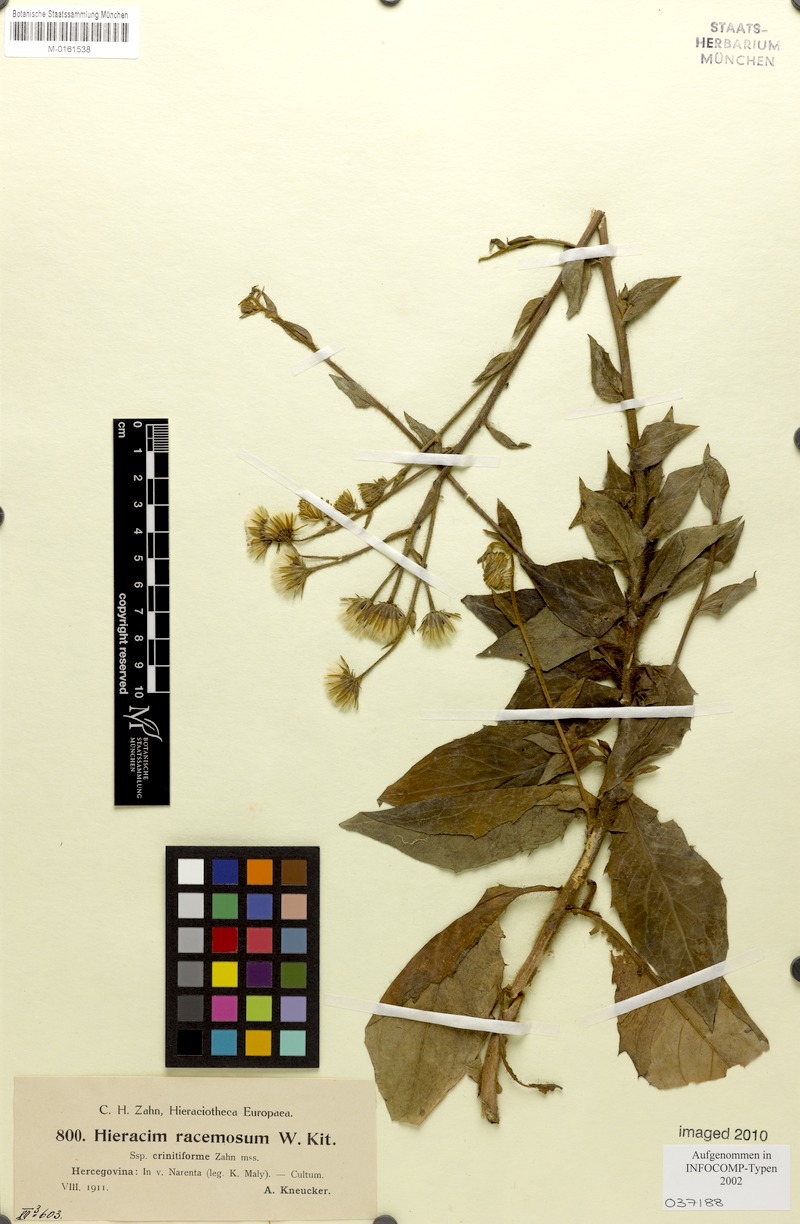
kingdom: Plantae
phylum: Tracheophyta
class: Magnoliopsida
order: Asterales
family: Asteraceae
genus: Hieracium
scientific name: Hieracium racemosum
